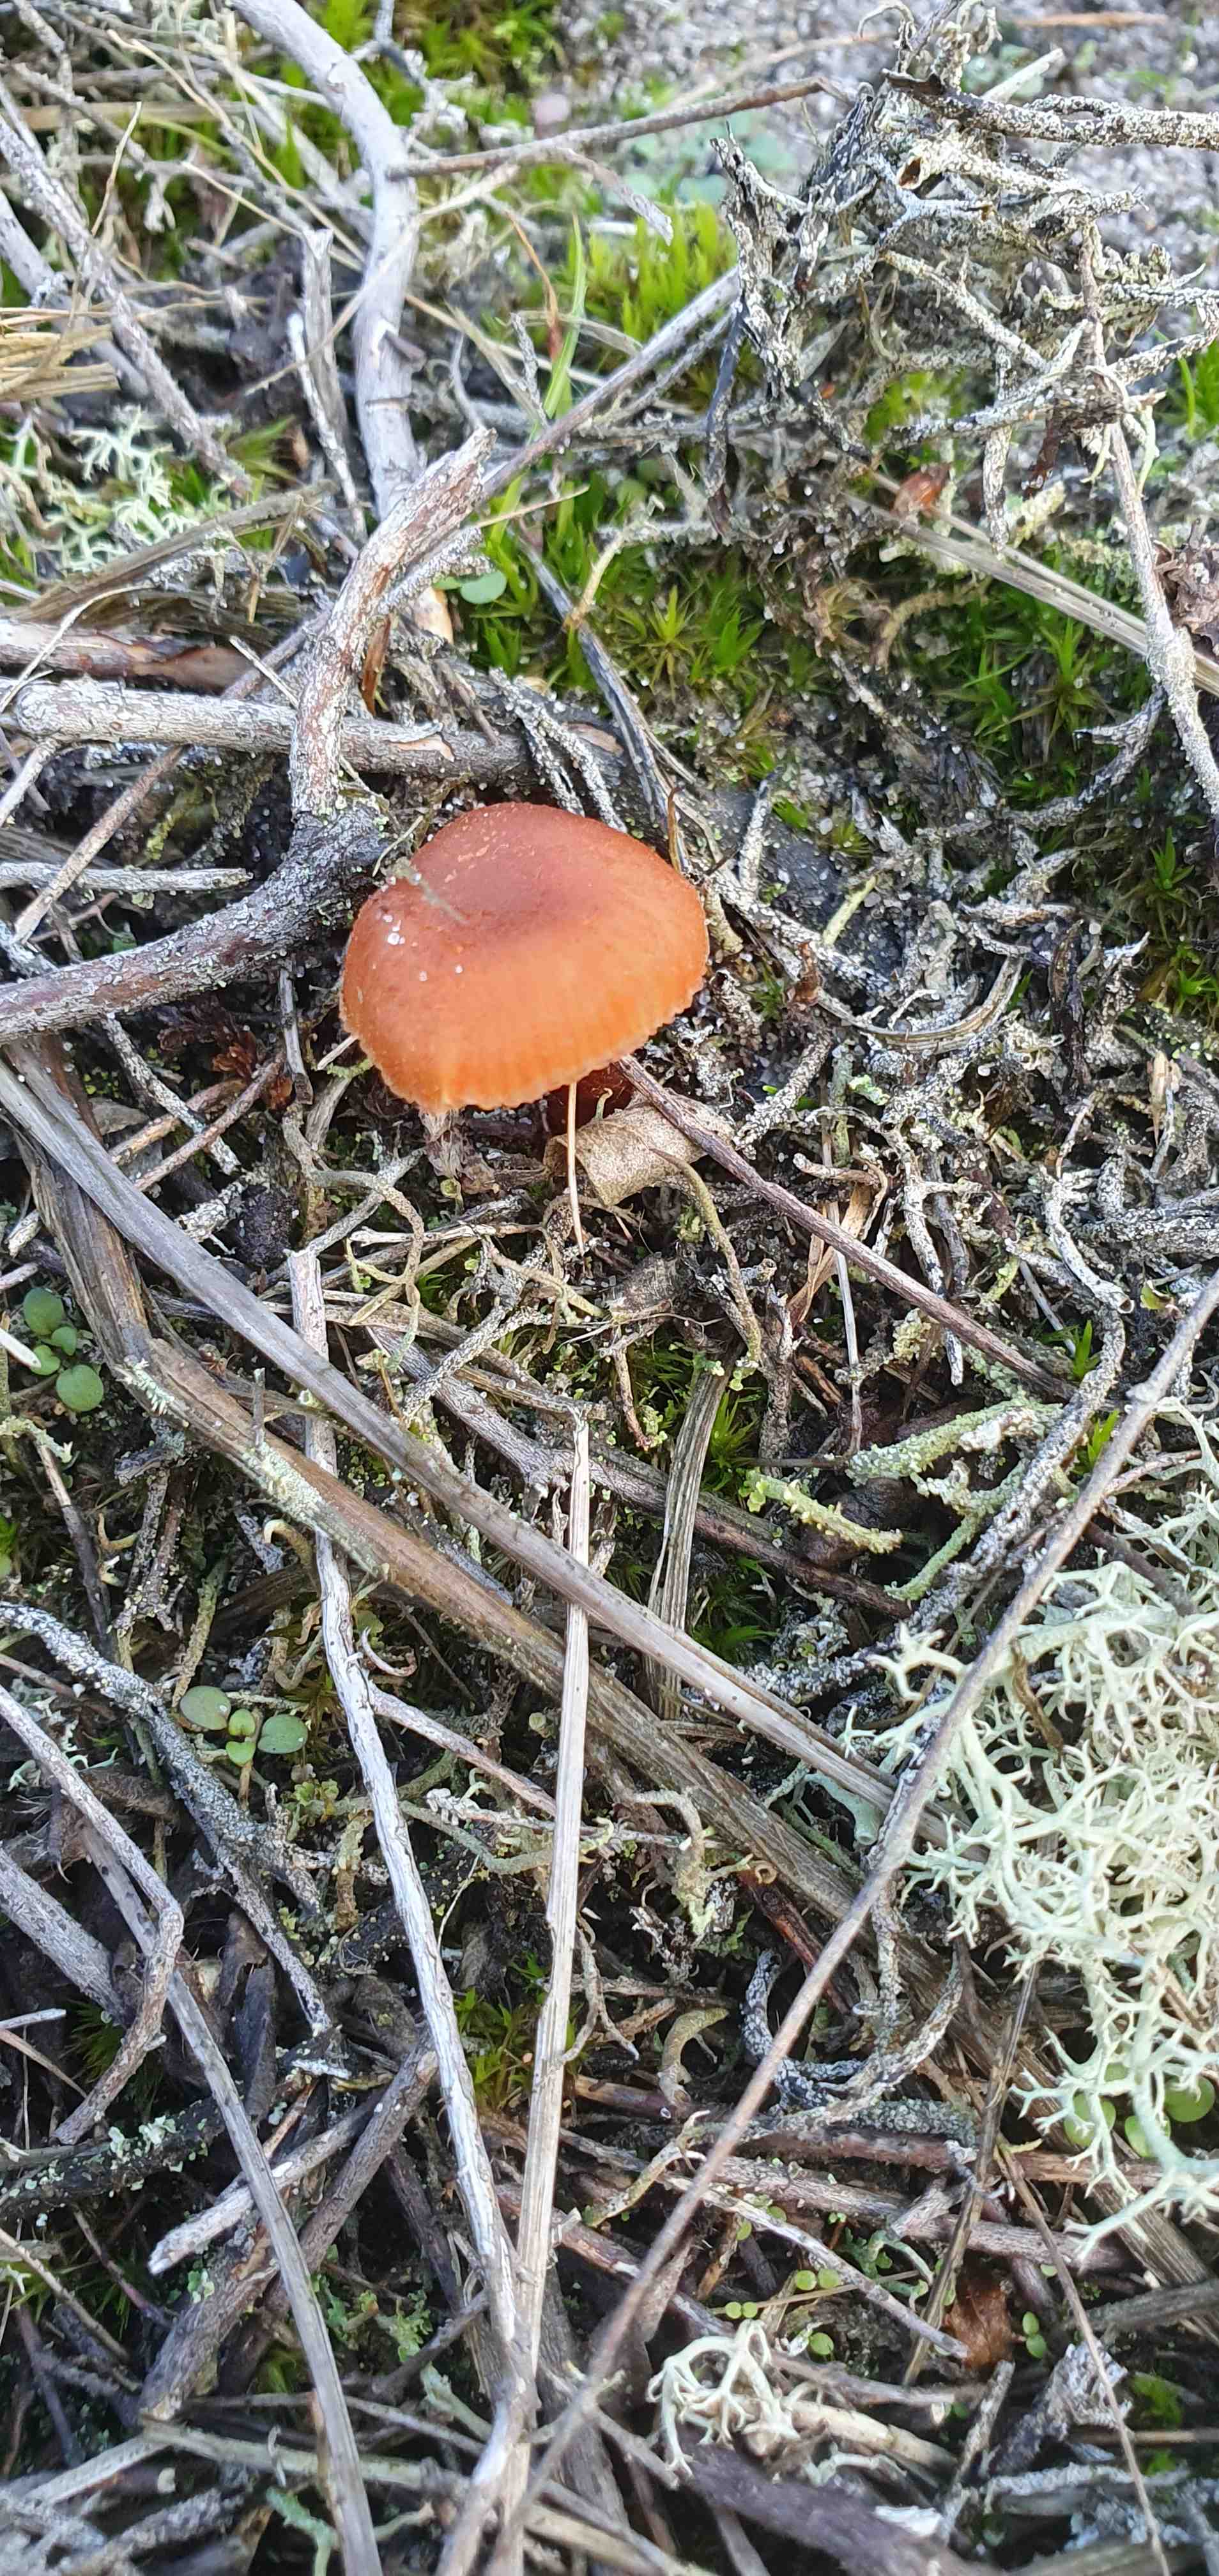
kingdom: Fungi
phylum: Basidiomycota
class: Agaricomycetes
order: Agaricales
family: Hydnangiaceae
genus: Laccaria
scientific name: Laccaria
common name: ametysthat
